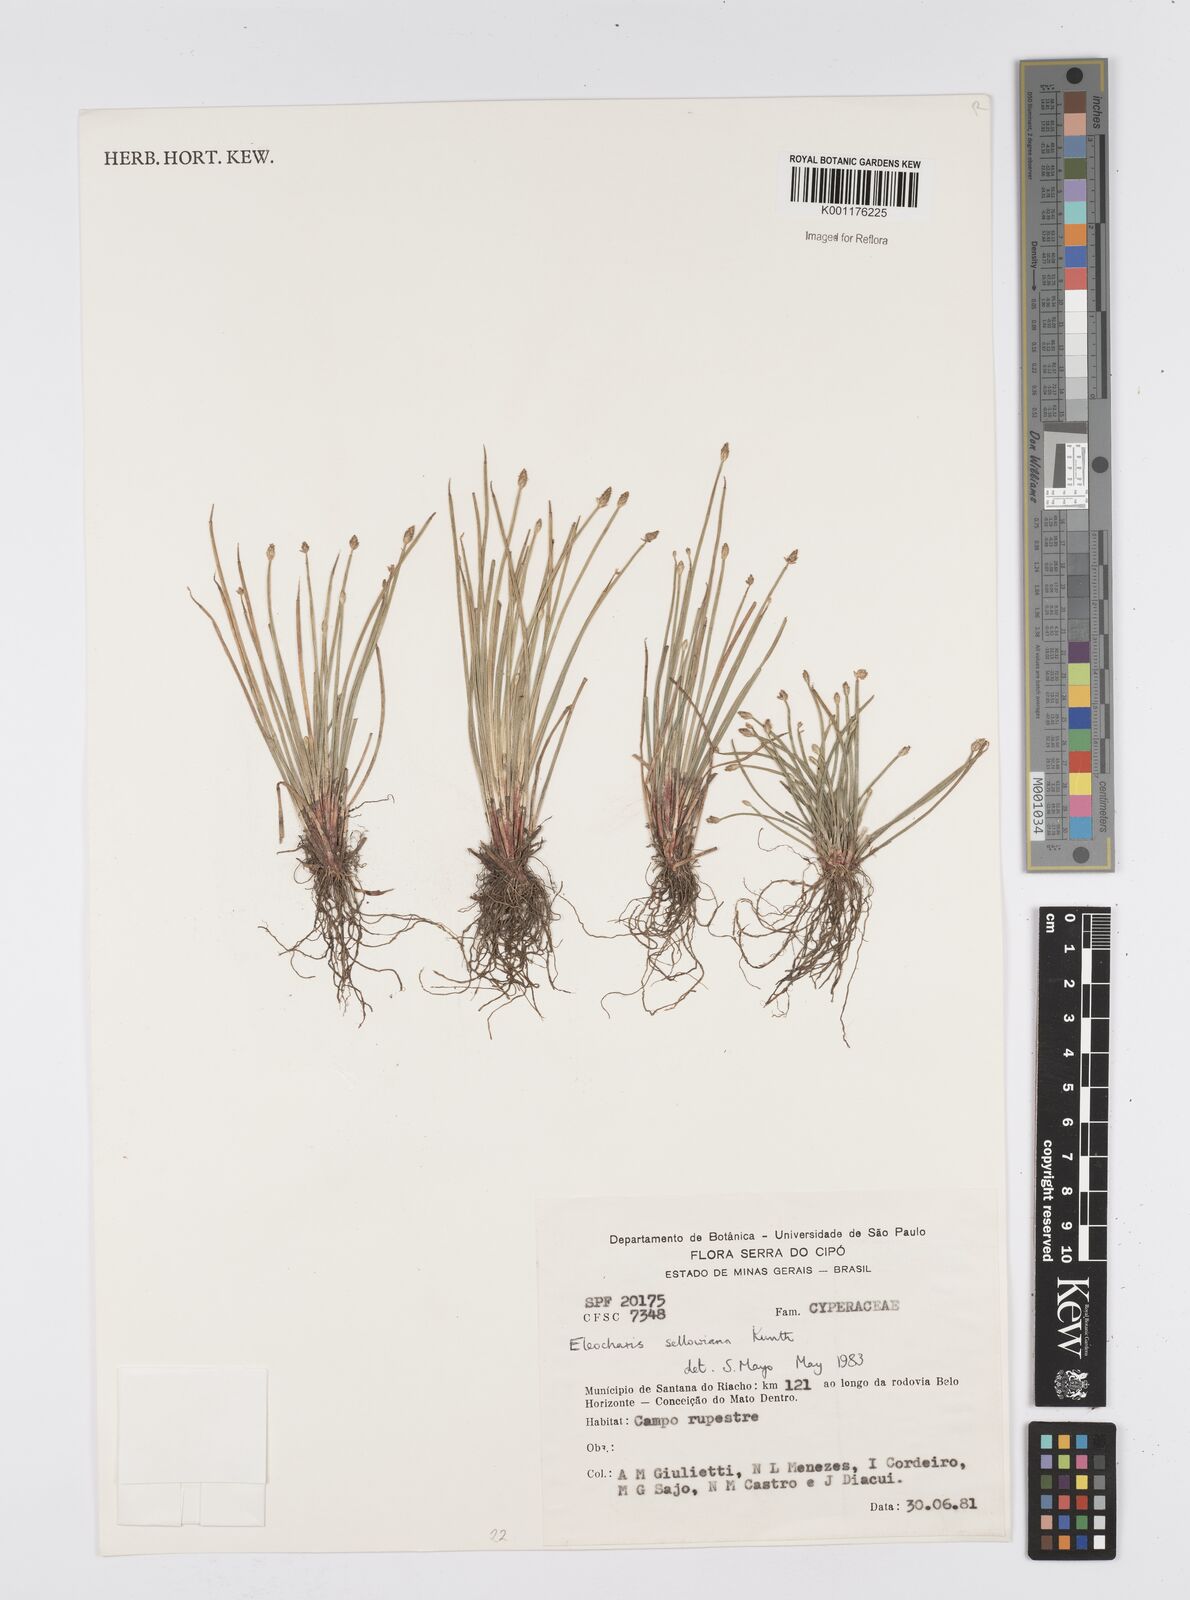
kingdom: Plantae
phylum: Tracheophyta
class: Liliopsida
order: Poales
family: Cyperaceae
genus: Eleocharis
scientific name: Eleocharis sellowiana
